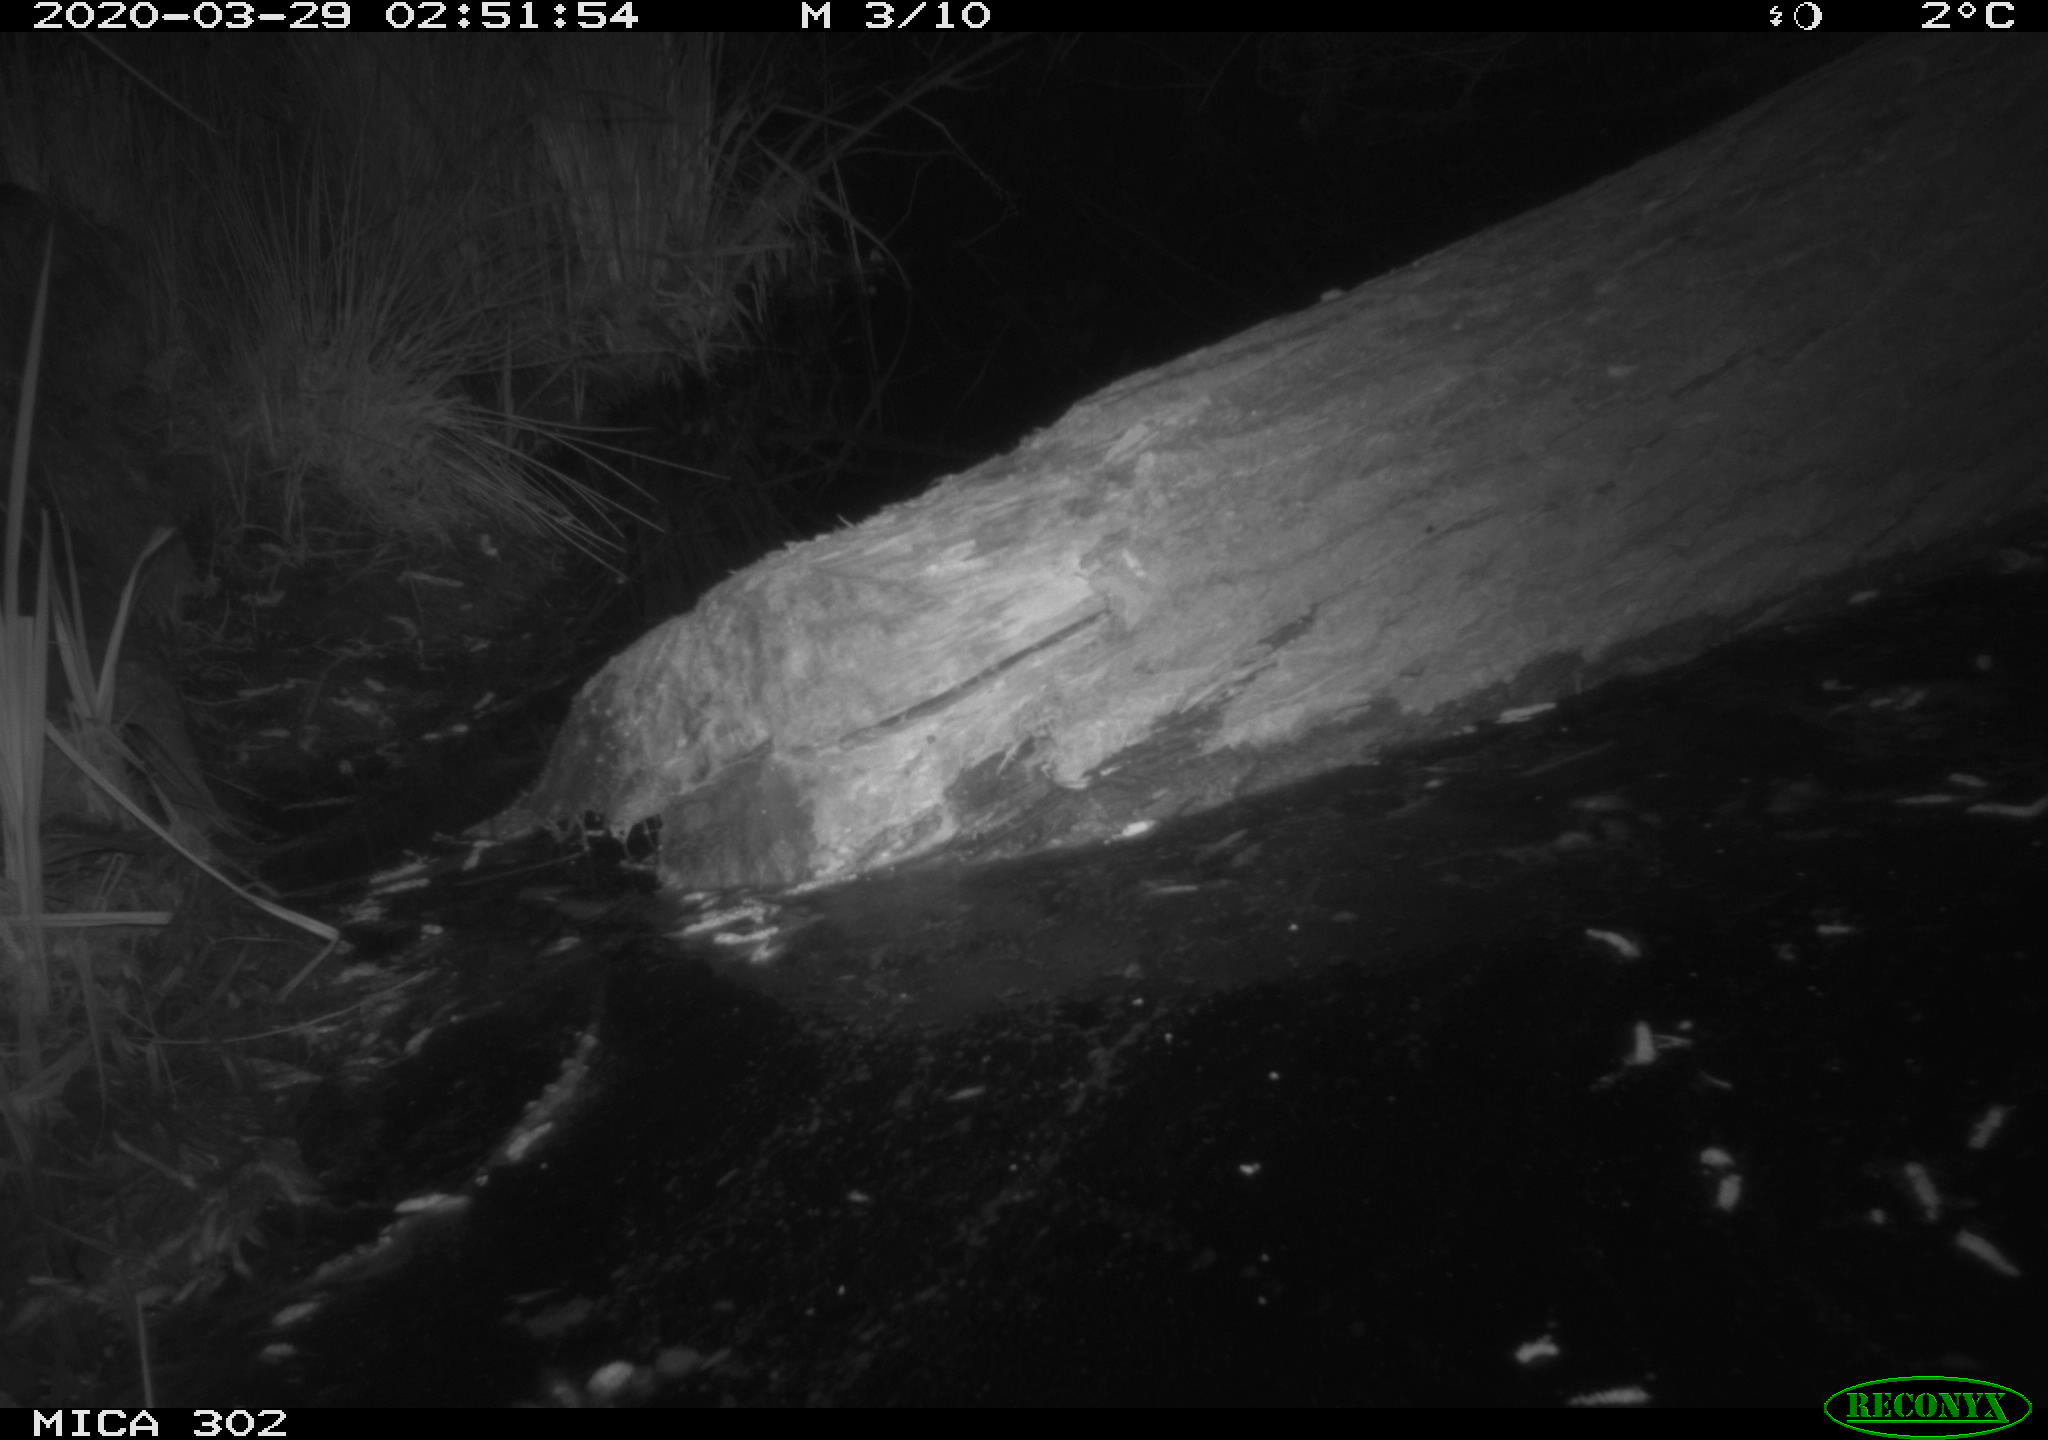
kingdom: Animalia
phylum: Chordata
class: Mammalia
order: Carnivora
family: Mustelidae
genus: Martes
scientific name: Martes foina
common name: Beech marten
